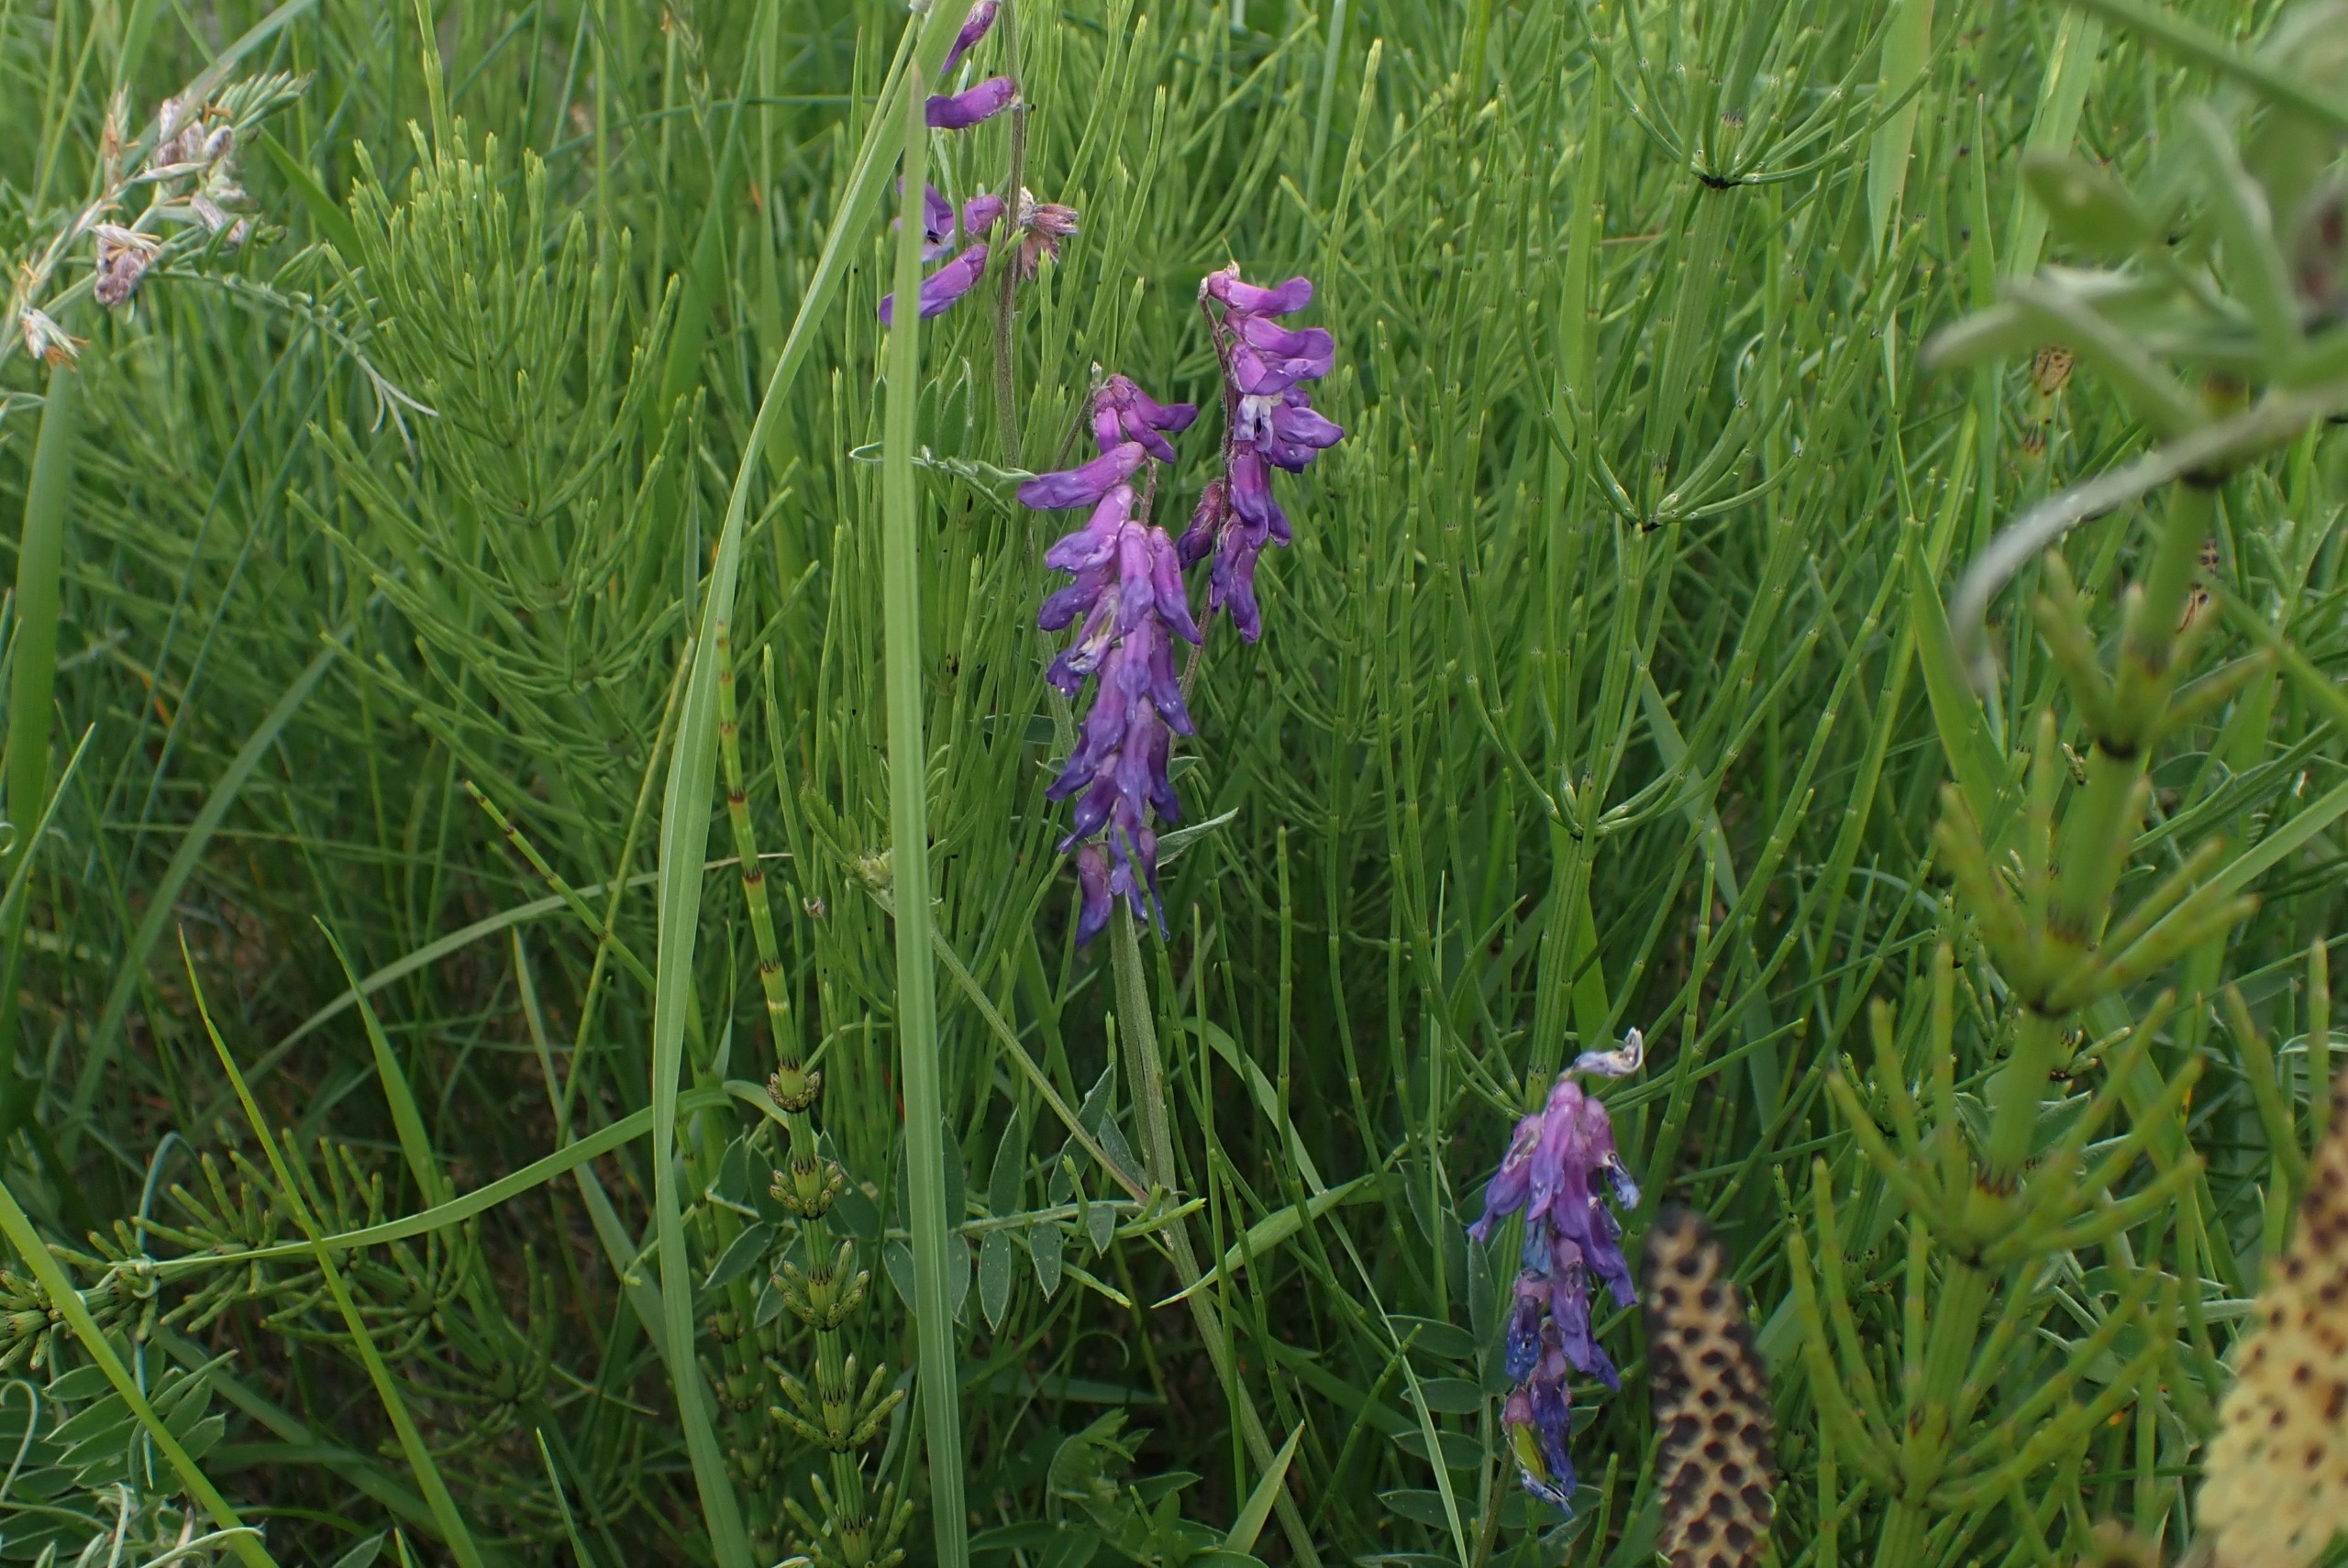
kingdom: Plantae
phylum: Tracheophyta
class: Magnoliopsida
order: Fabales
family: Fabaceae
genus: Vicia
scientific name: Vicia cracca
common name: Muse-vikke
